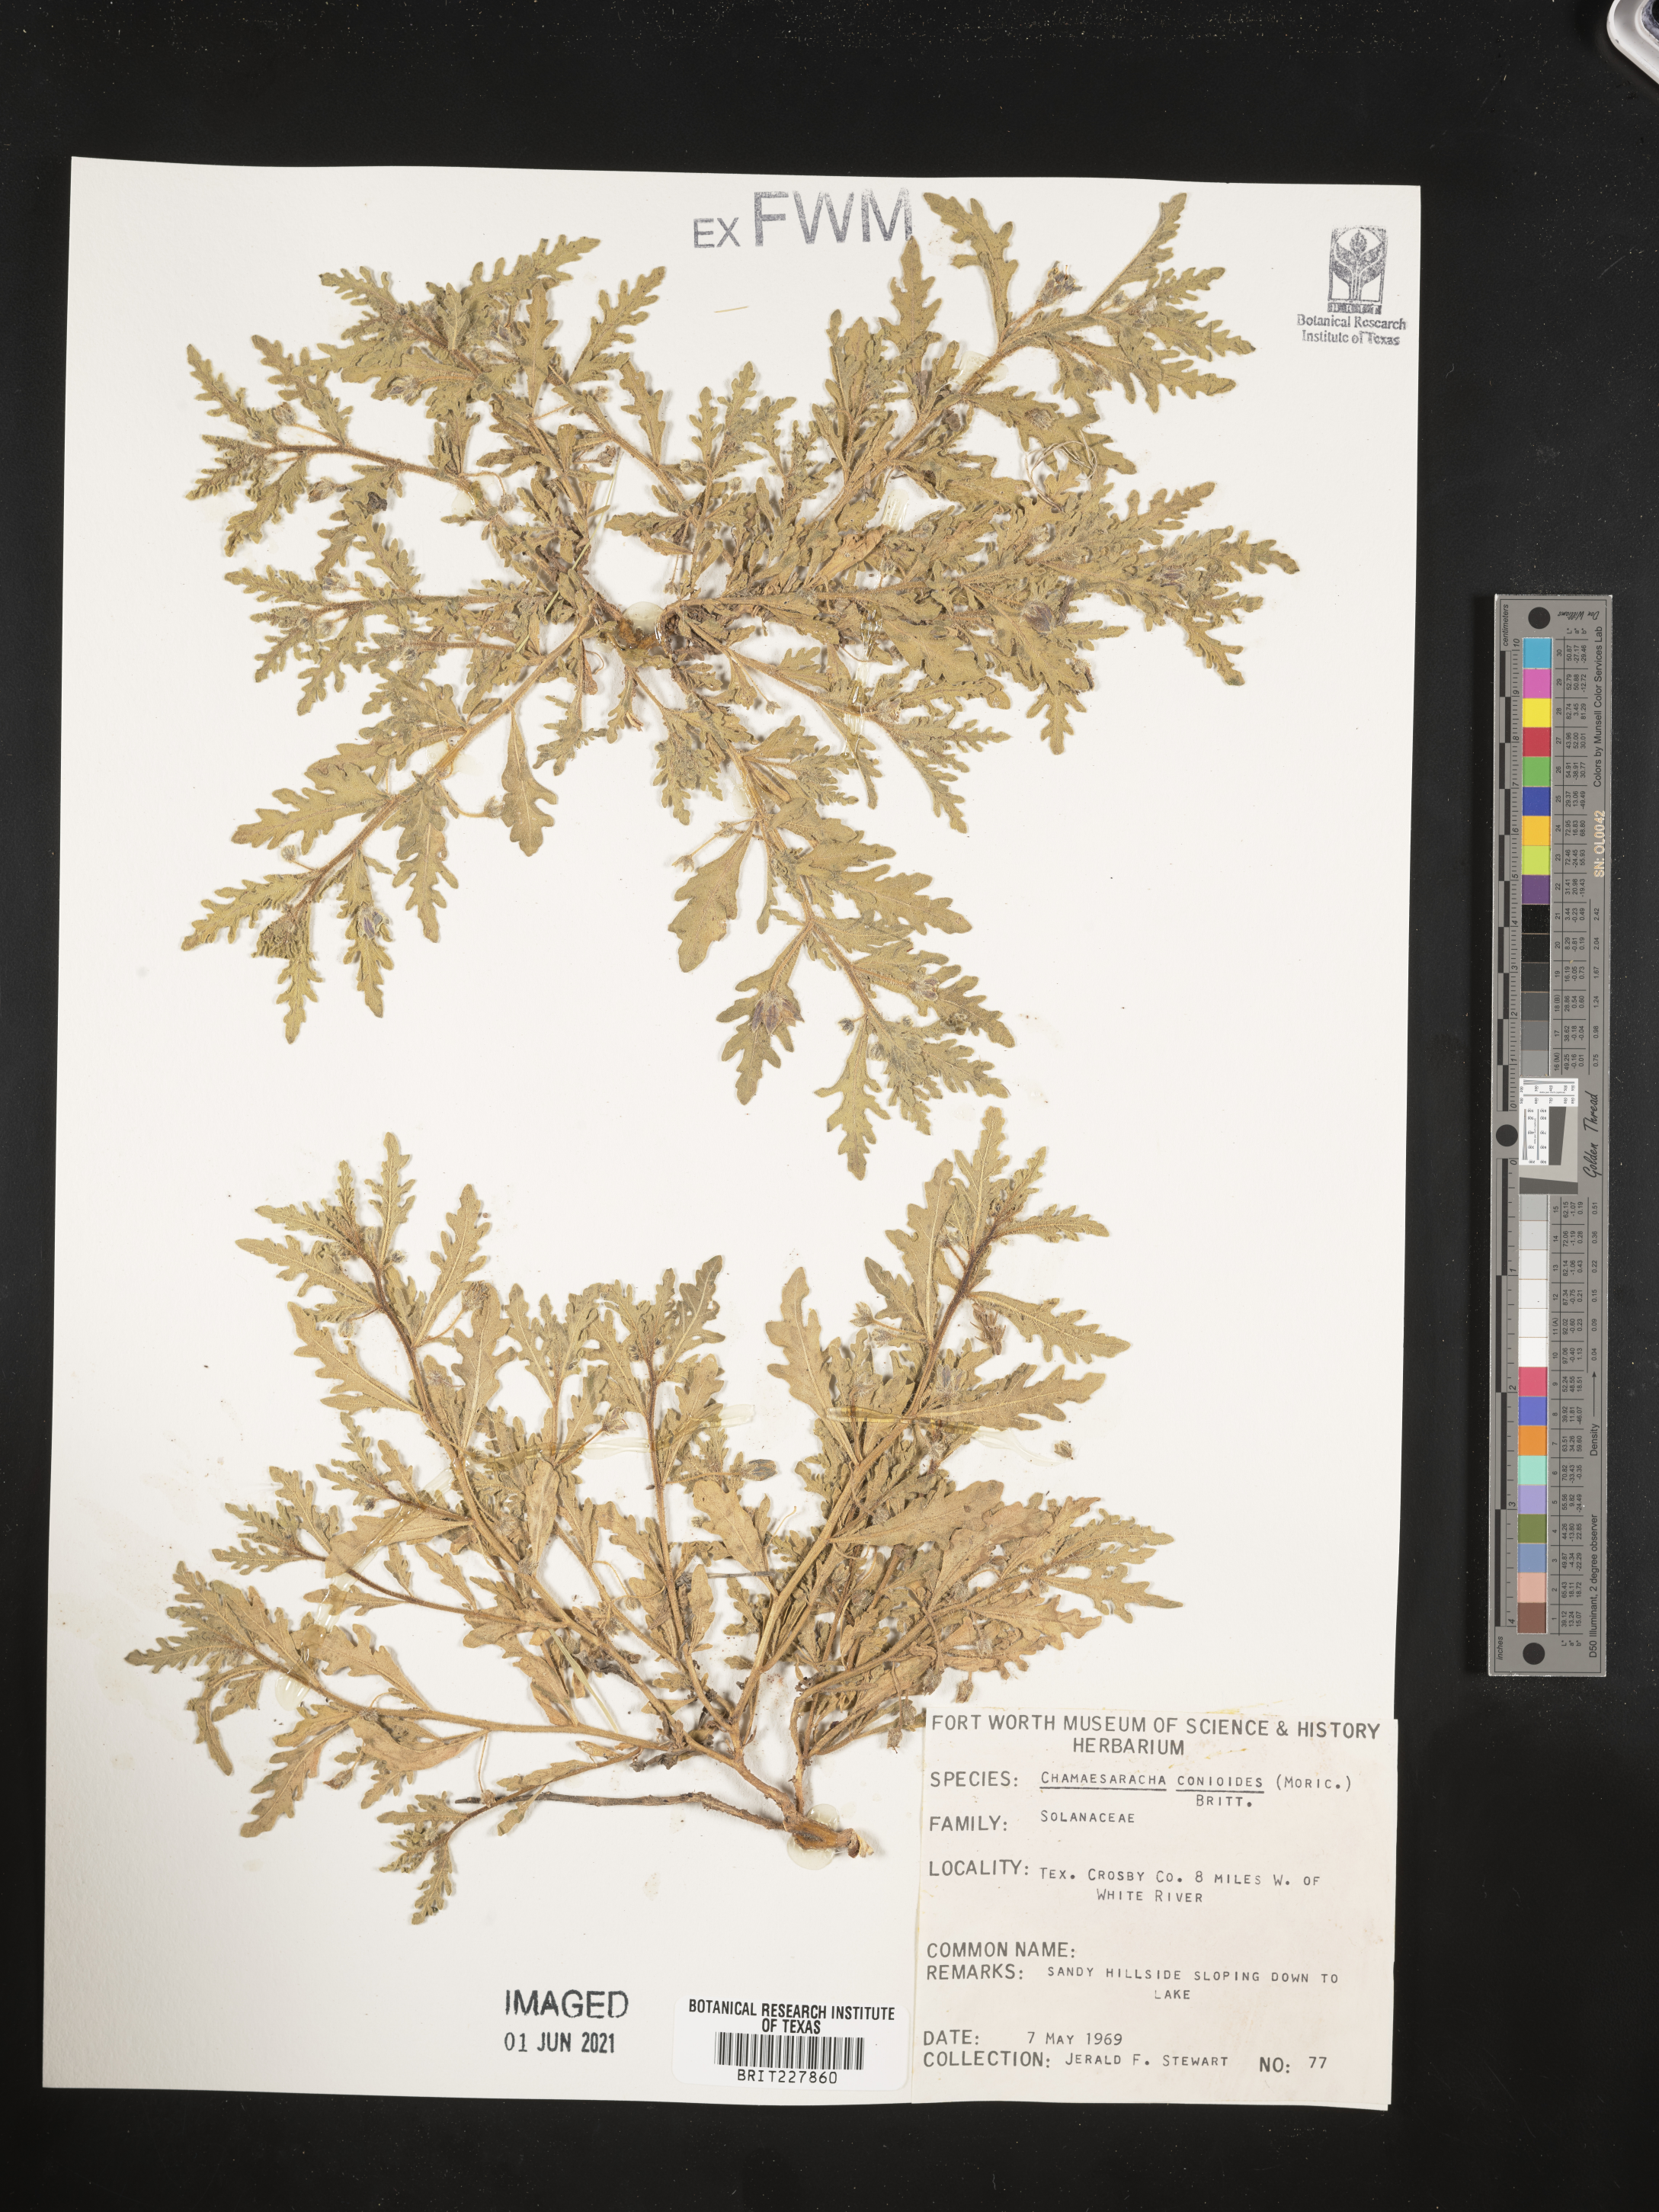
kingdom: Plantae
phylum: Tracheophyta
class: Magnoliopsida
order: Solanales
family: Solanaceae
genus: Chamaesaracha
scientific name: Chamaesaracha conioides
